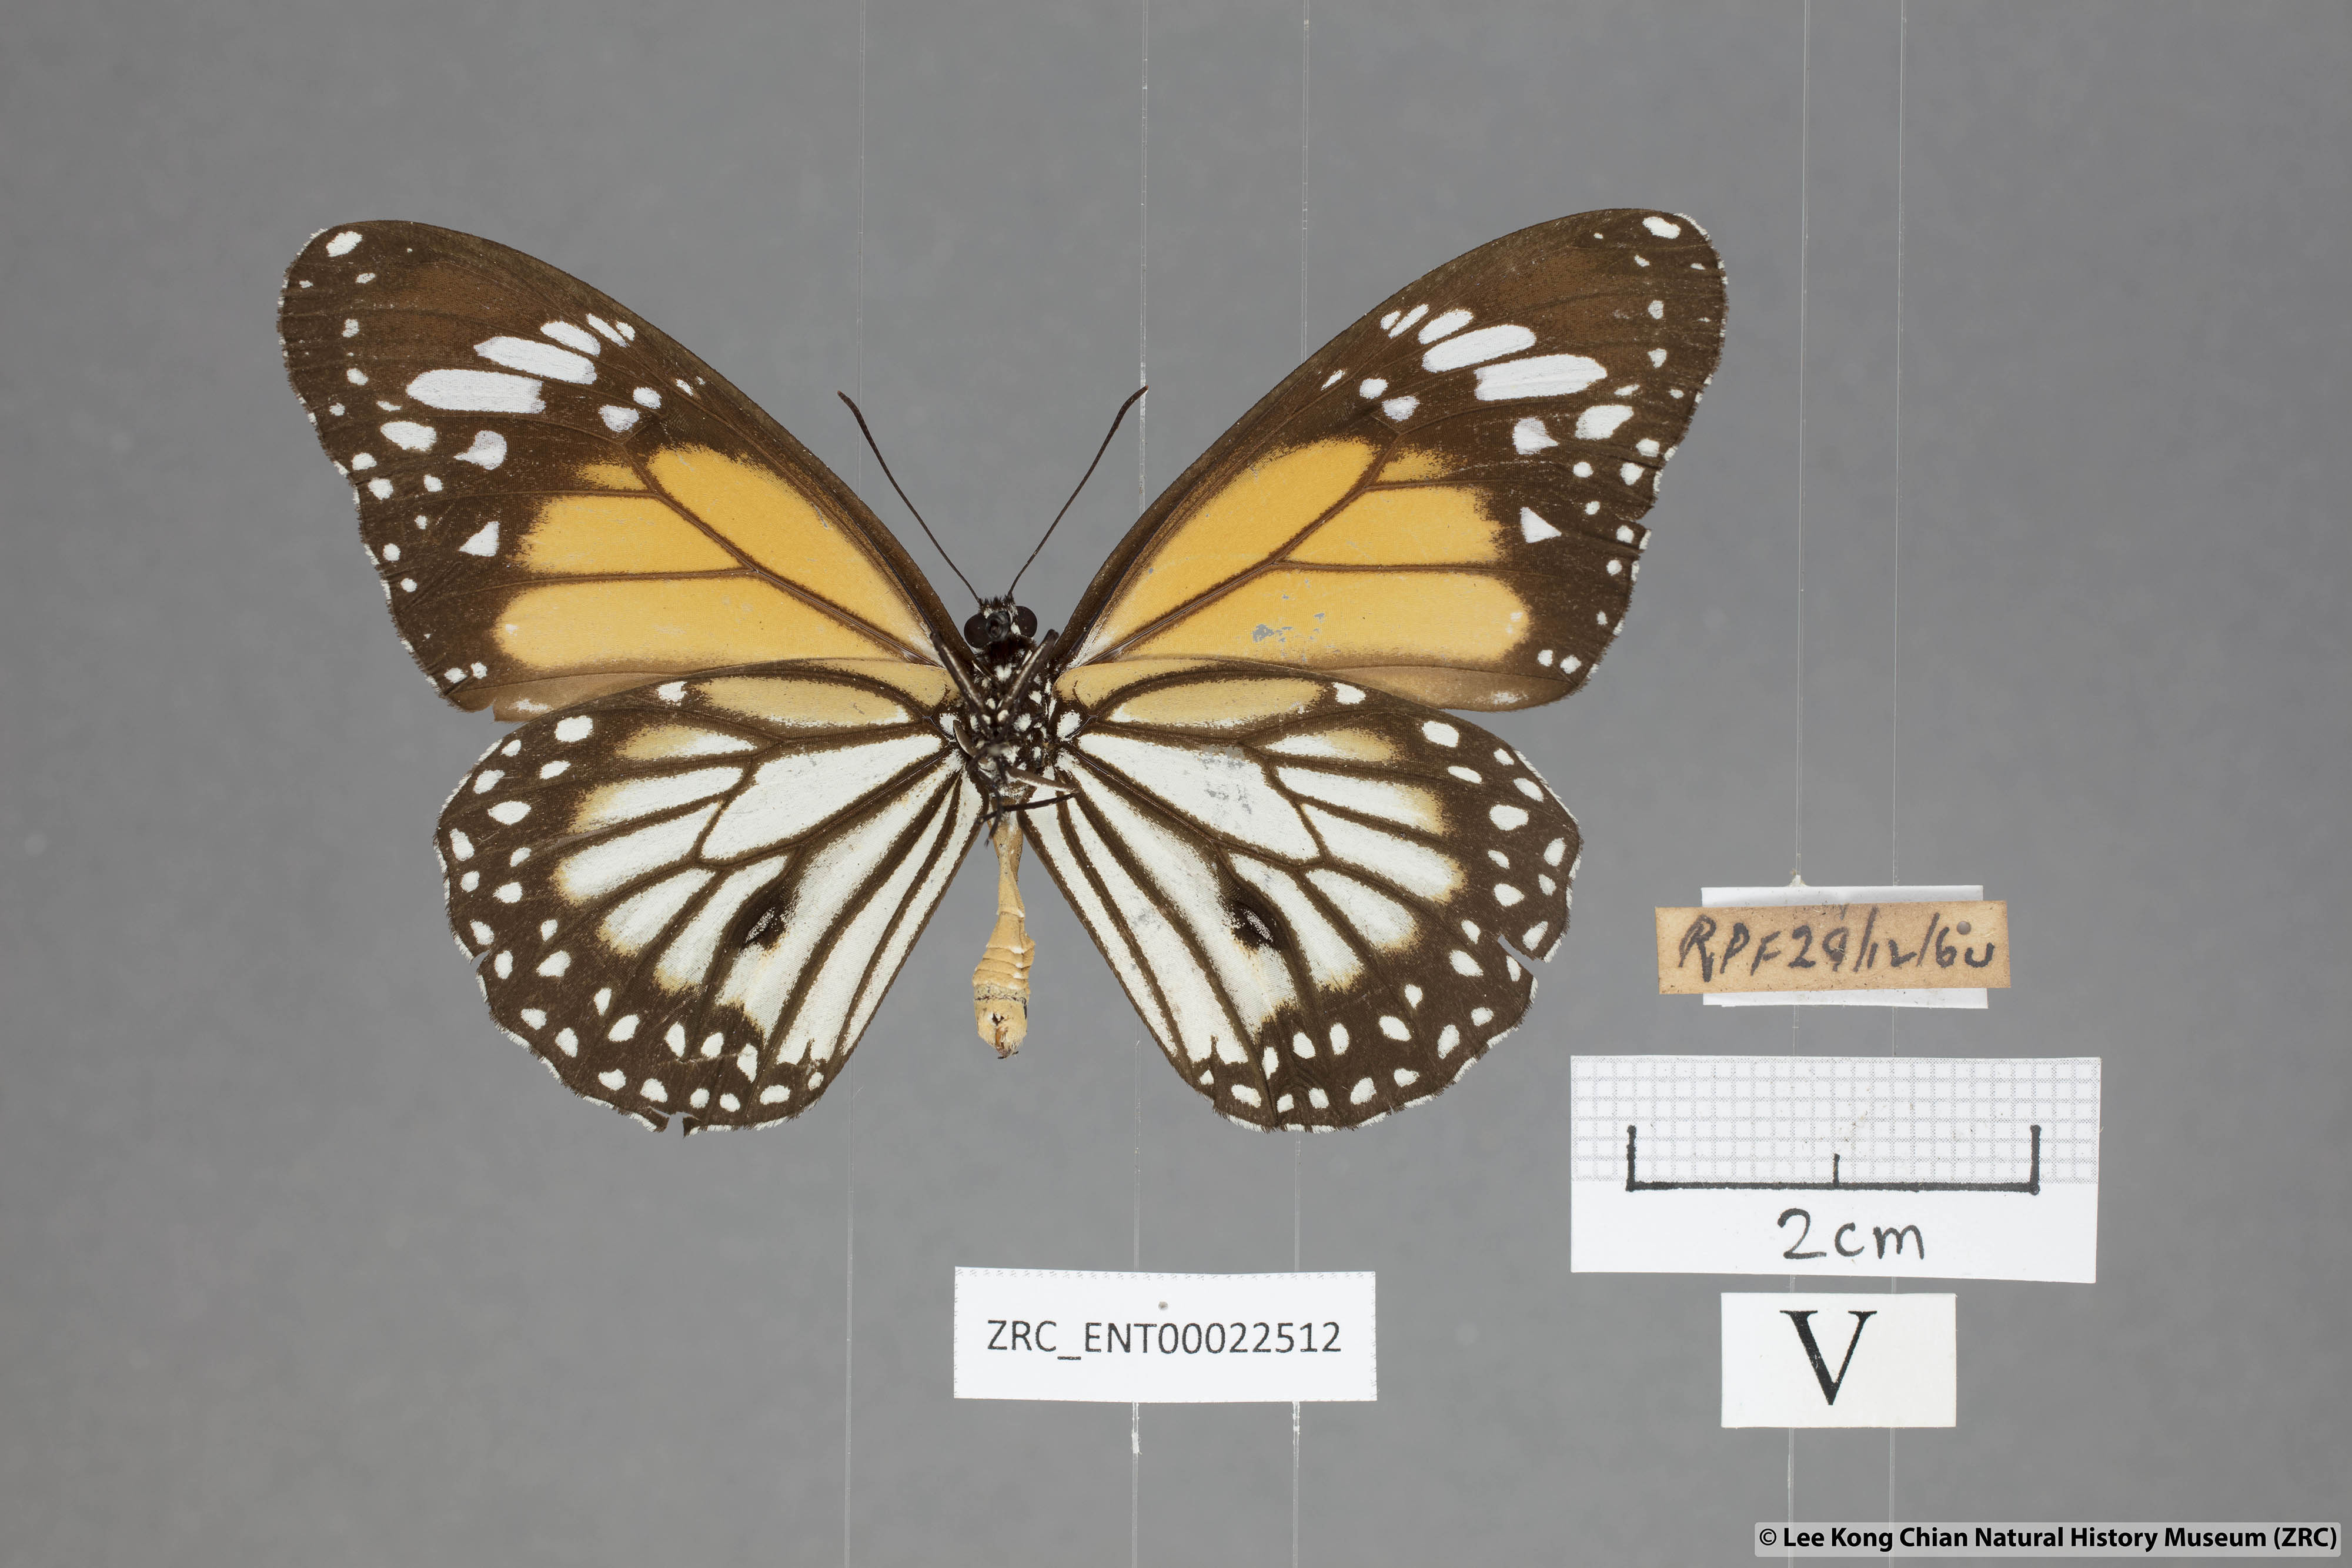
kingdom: Animalia
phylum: Arthropoda
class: Insecta
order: Lepidoptera
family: Nymphalidae
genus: Danaus
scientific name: Danaus melanippus
